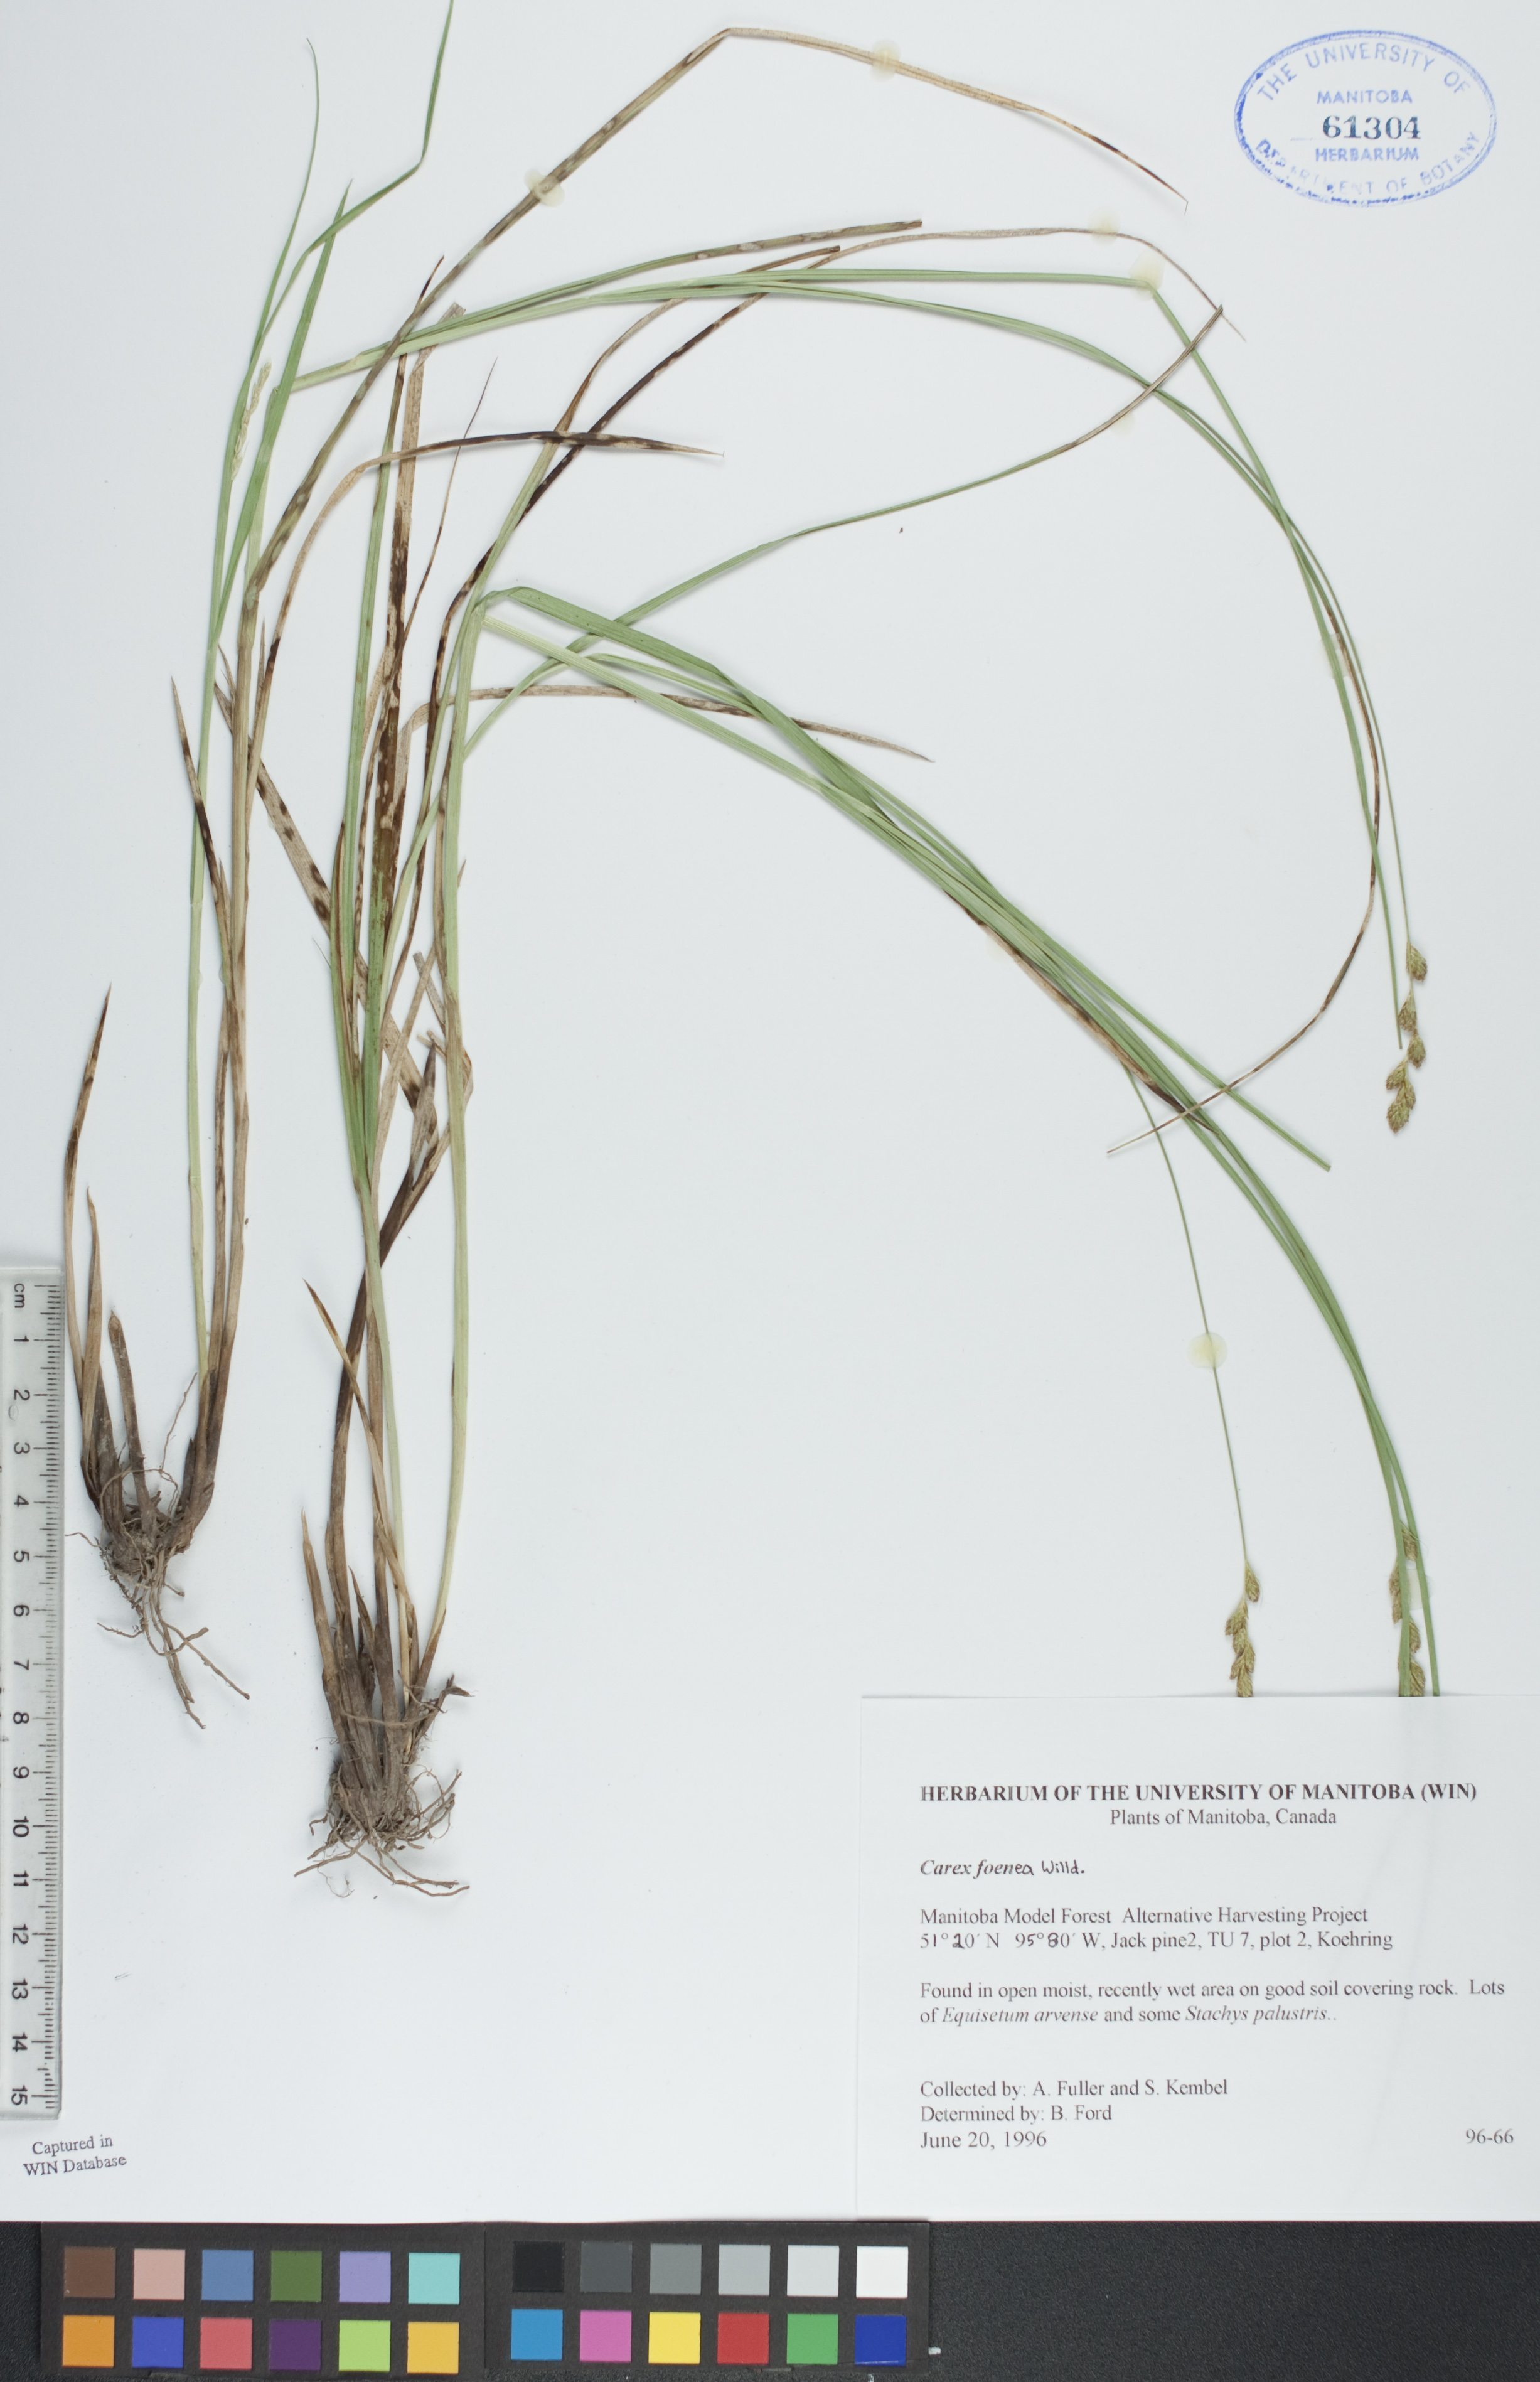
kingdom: Plantae
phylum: Tracheophyta
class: Liliopsida
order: Poales
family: Cyperaceae
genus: Carex
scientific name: Carex foenea
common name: Bronze sedge
